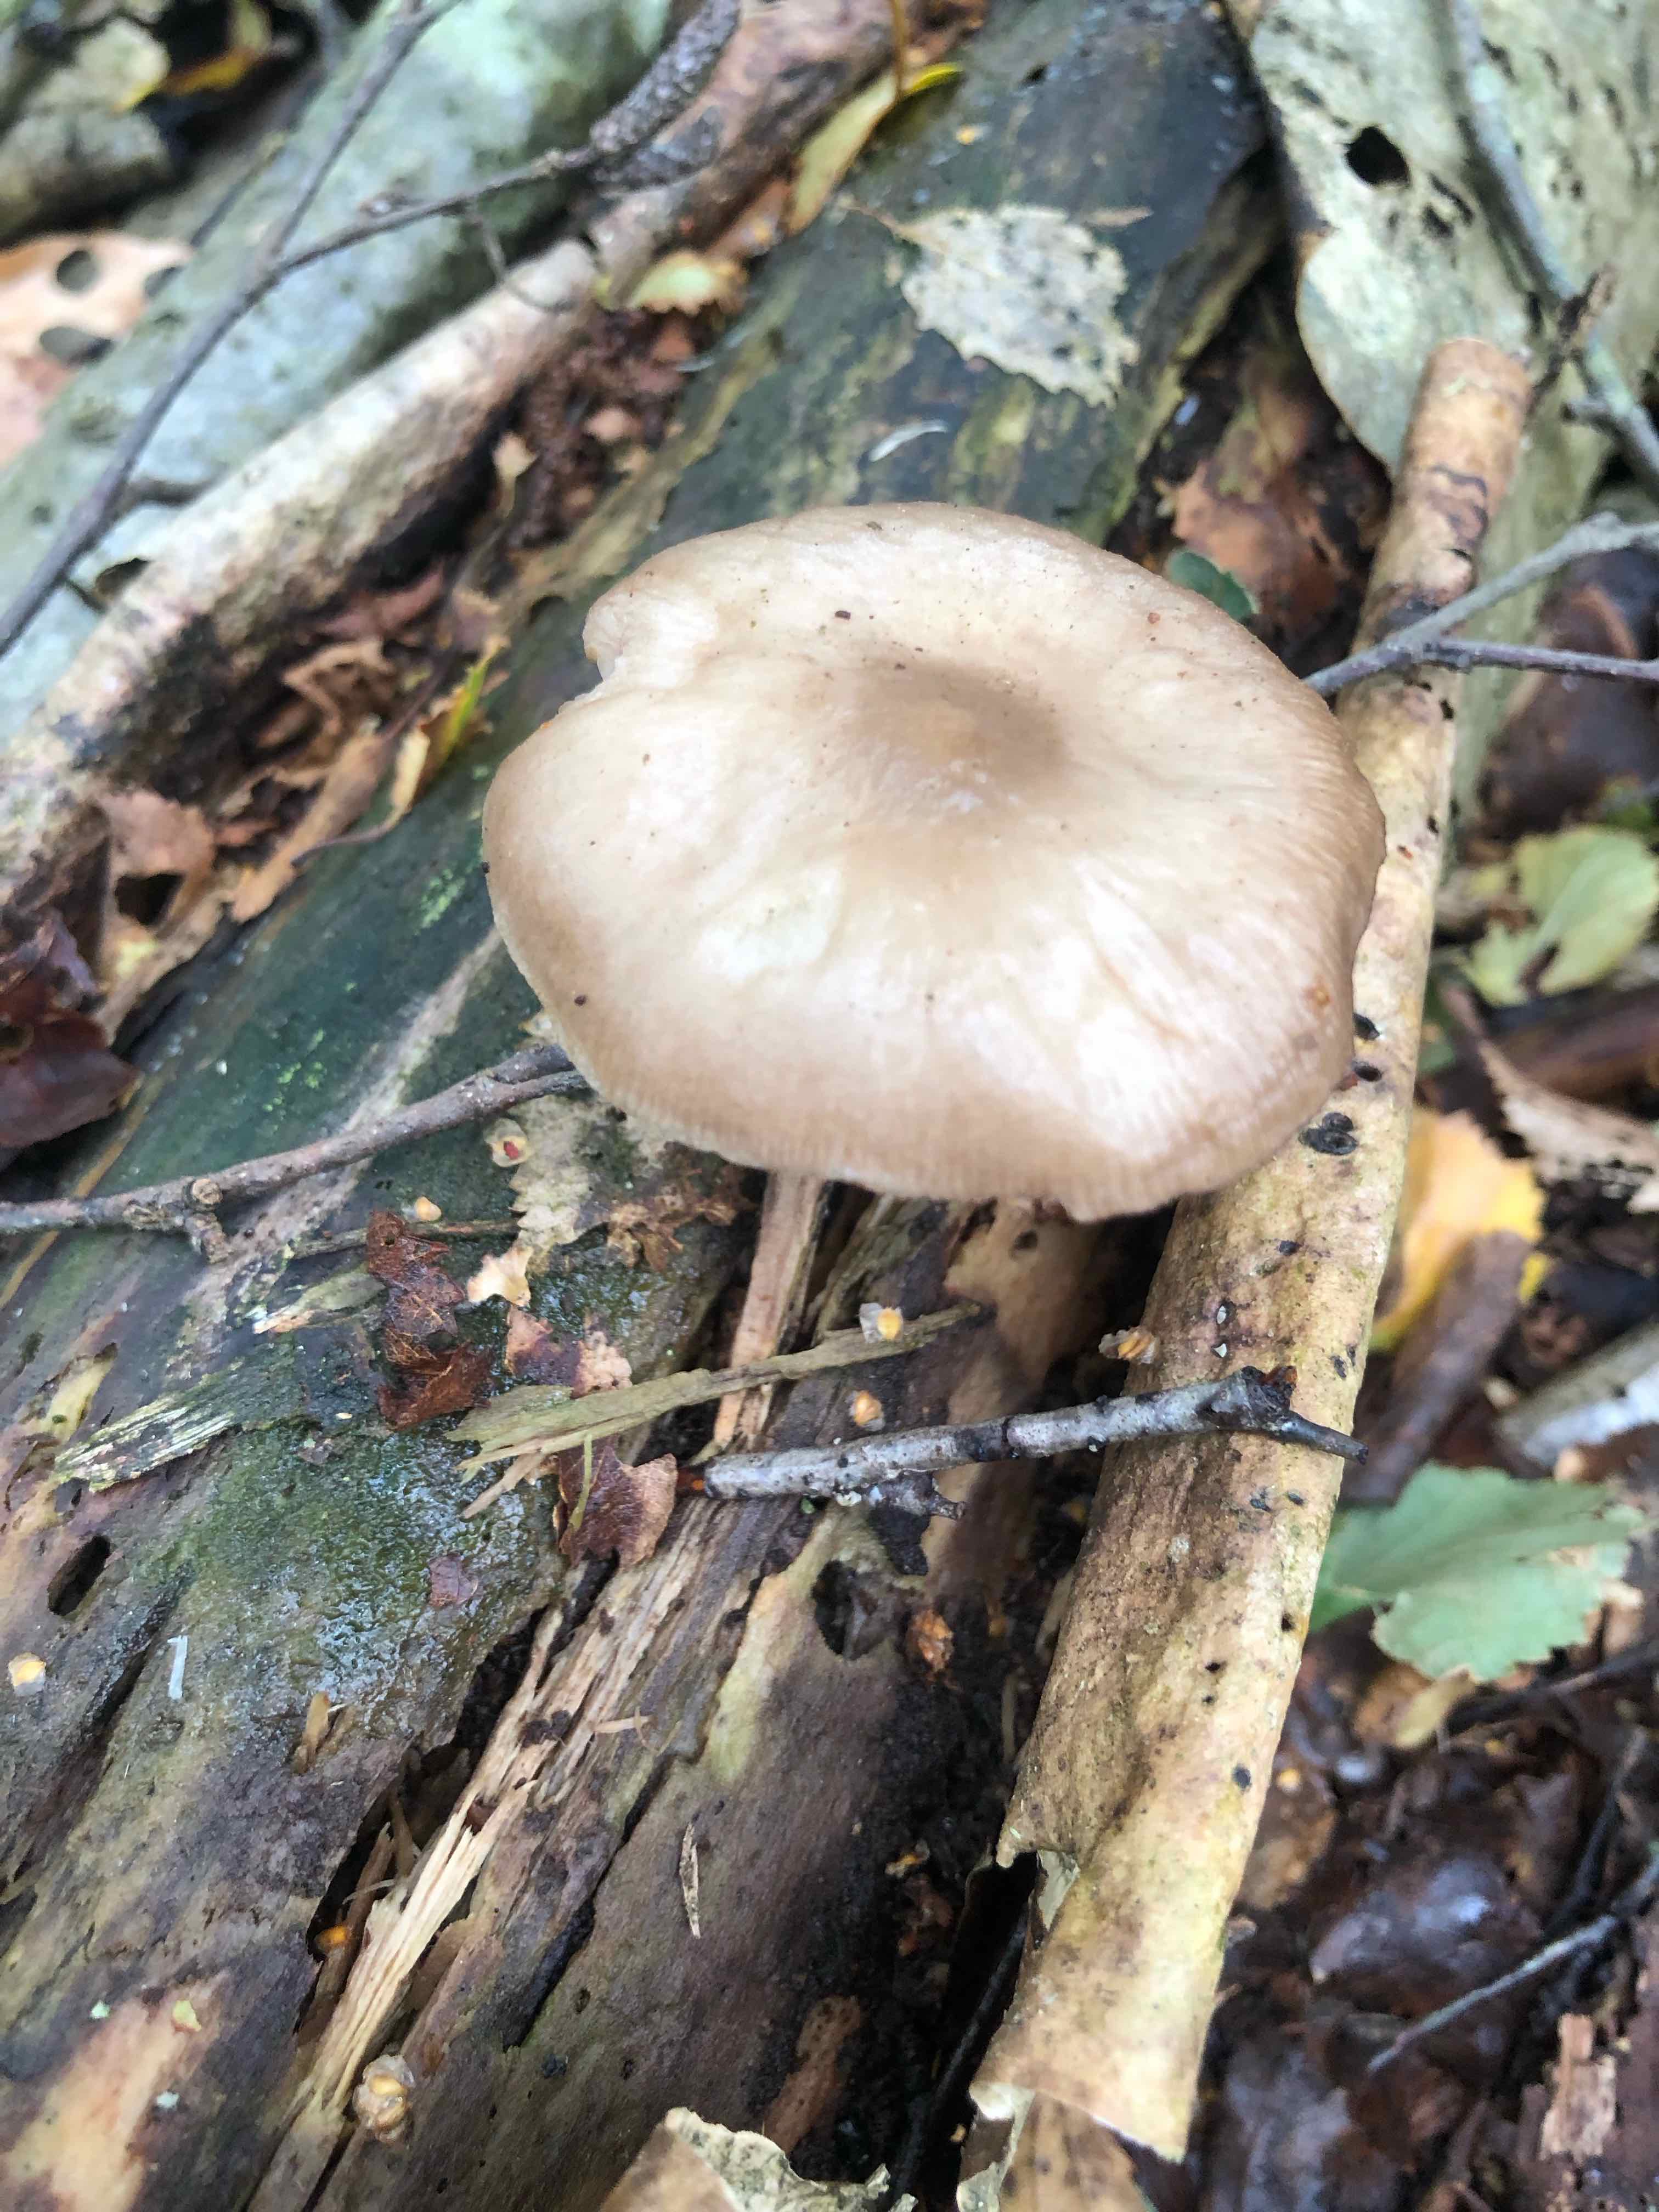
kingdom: Fungi
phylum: Basidiomycota
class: Agaricomycetes
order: Agaricales
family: Pluteaceae
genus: Pluteus
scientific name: Pluteus
